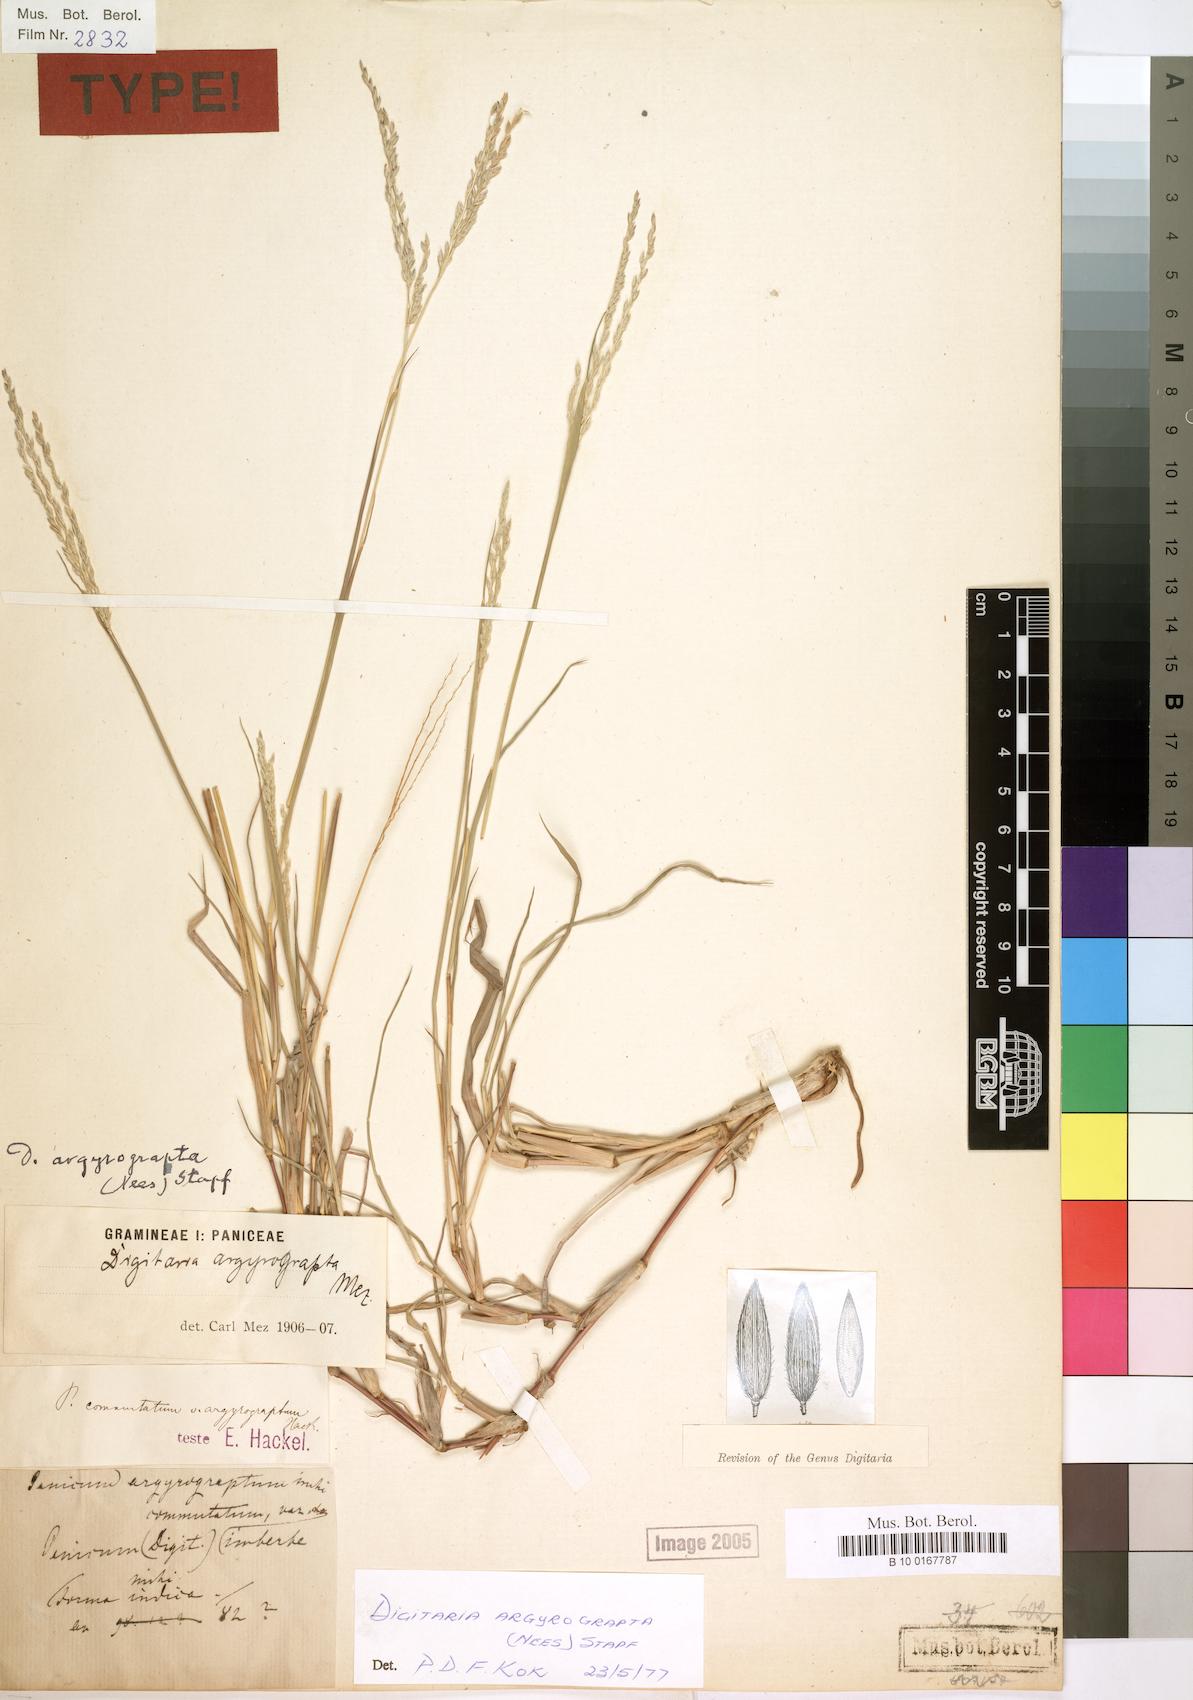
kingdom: Plantae
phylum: Tracheophyta
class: Liliopsida
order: Poales
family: Poaceae
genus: Digitaria
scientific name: Digitaria argyrograpta
